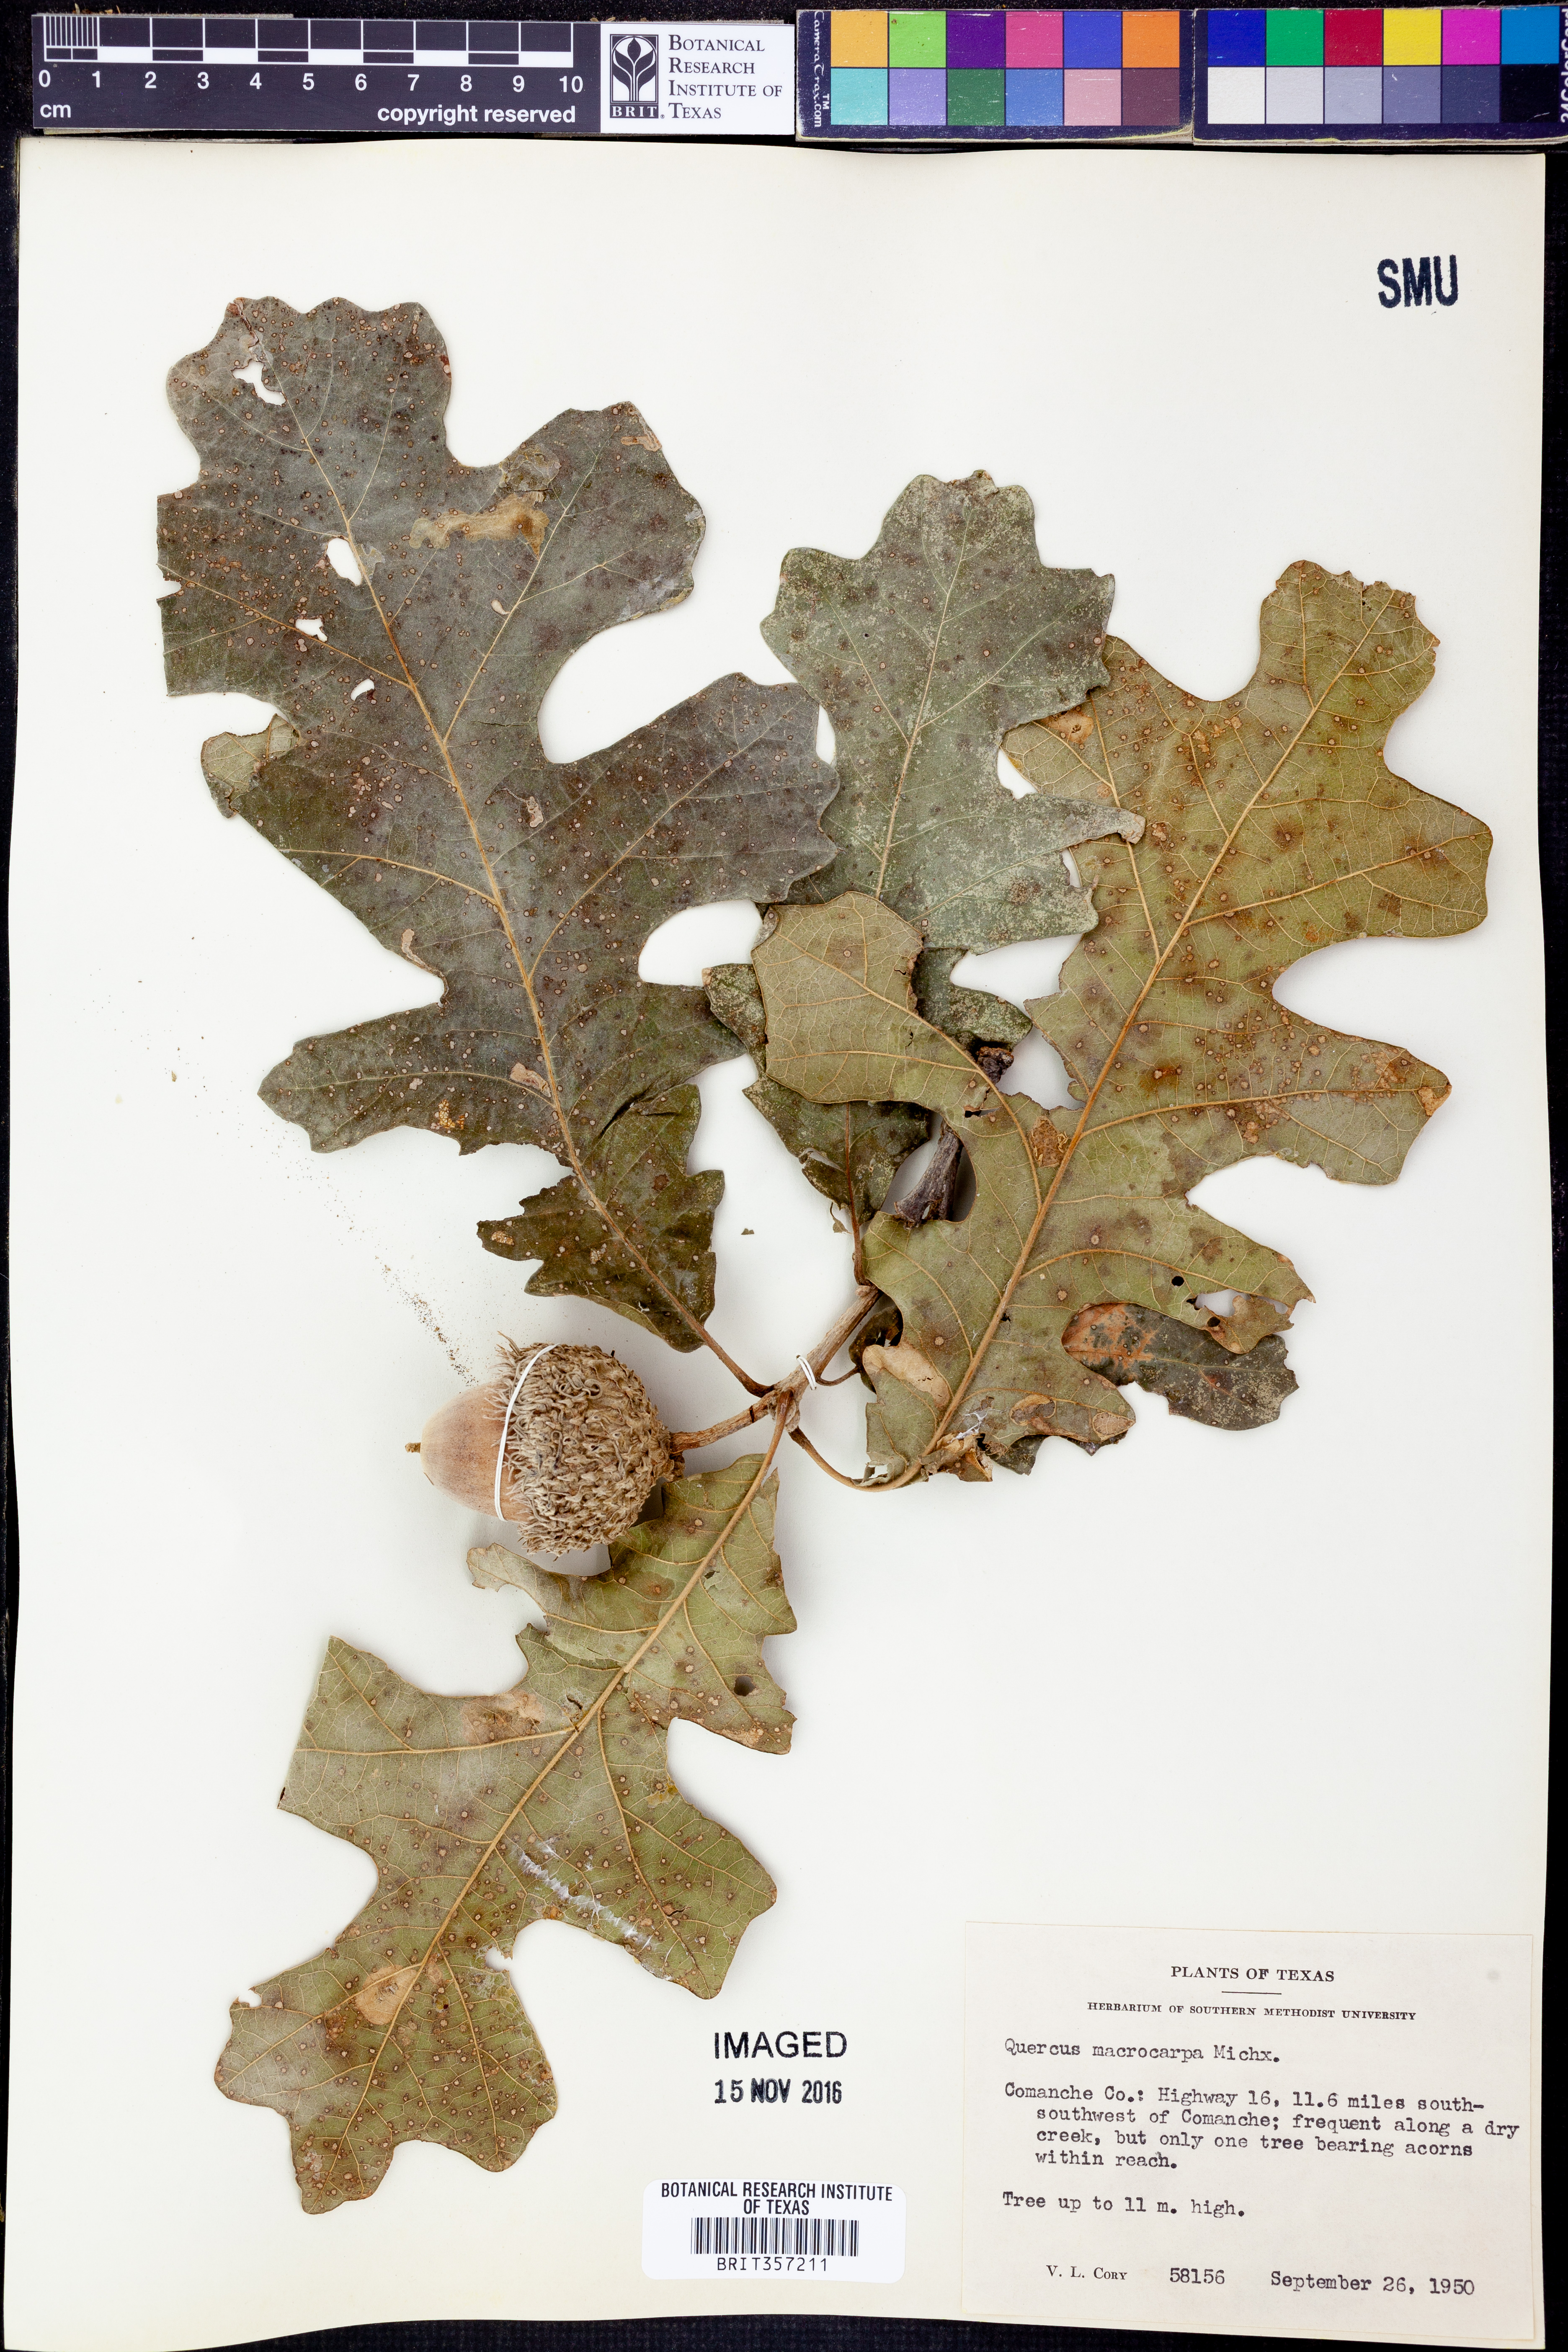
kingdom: Plantae
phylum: Tracheophyta
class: Magnoliopsida
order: Fagales
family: Fagaceae
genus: Quercus
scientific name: Quercus macrocarpa
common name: Bur oak
